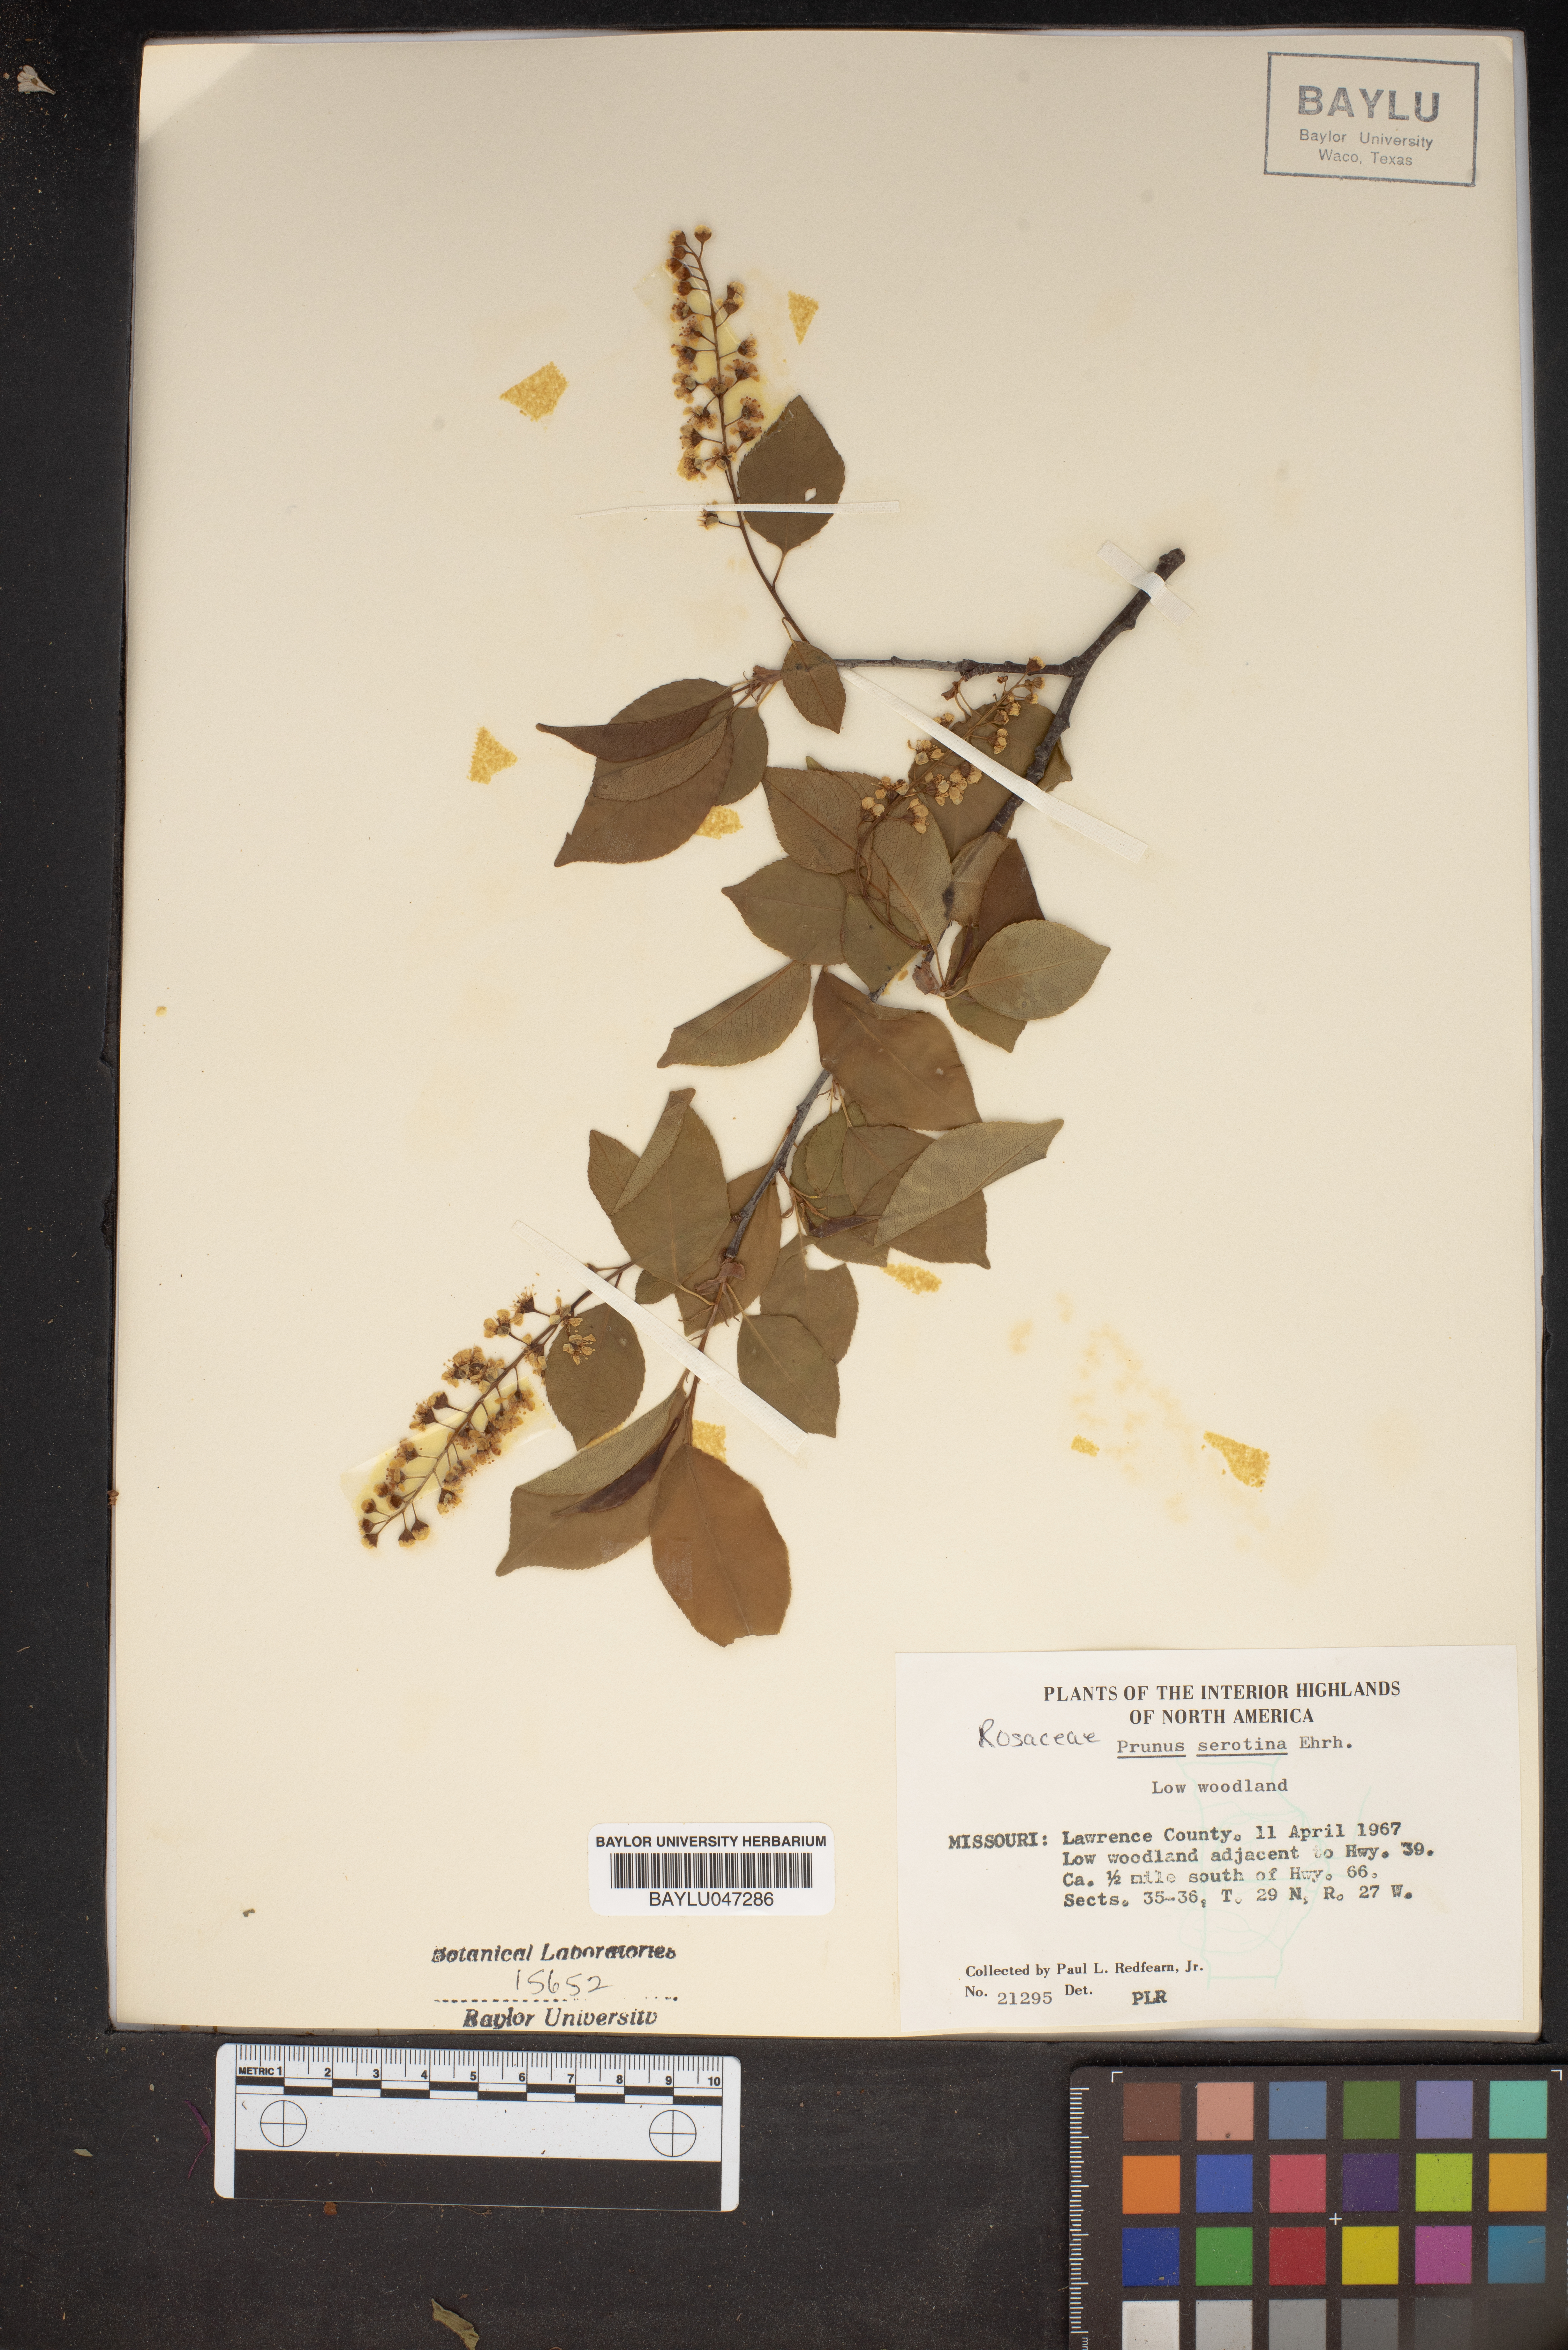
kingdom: Plantae
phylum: Tracheophyta
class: Magnoliopsida
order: Rosales
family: Rosaceae
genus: Prunus
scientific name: Prunus serotina
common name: Black cherry
